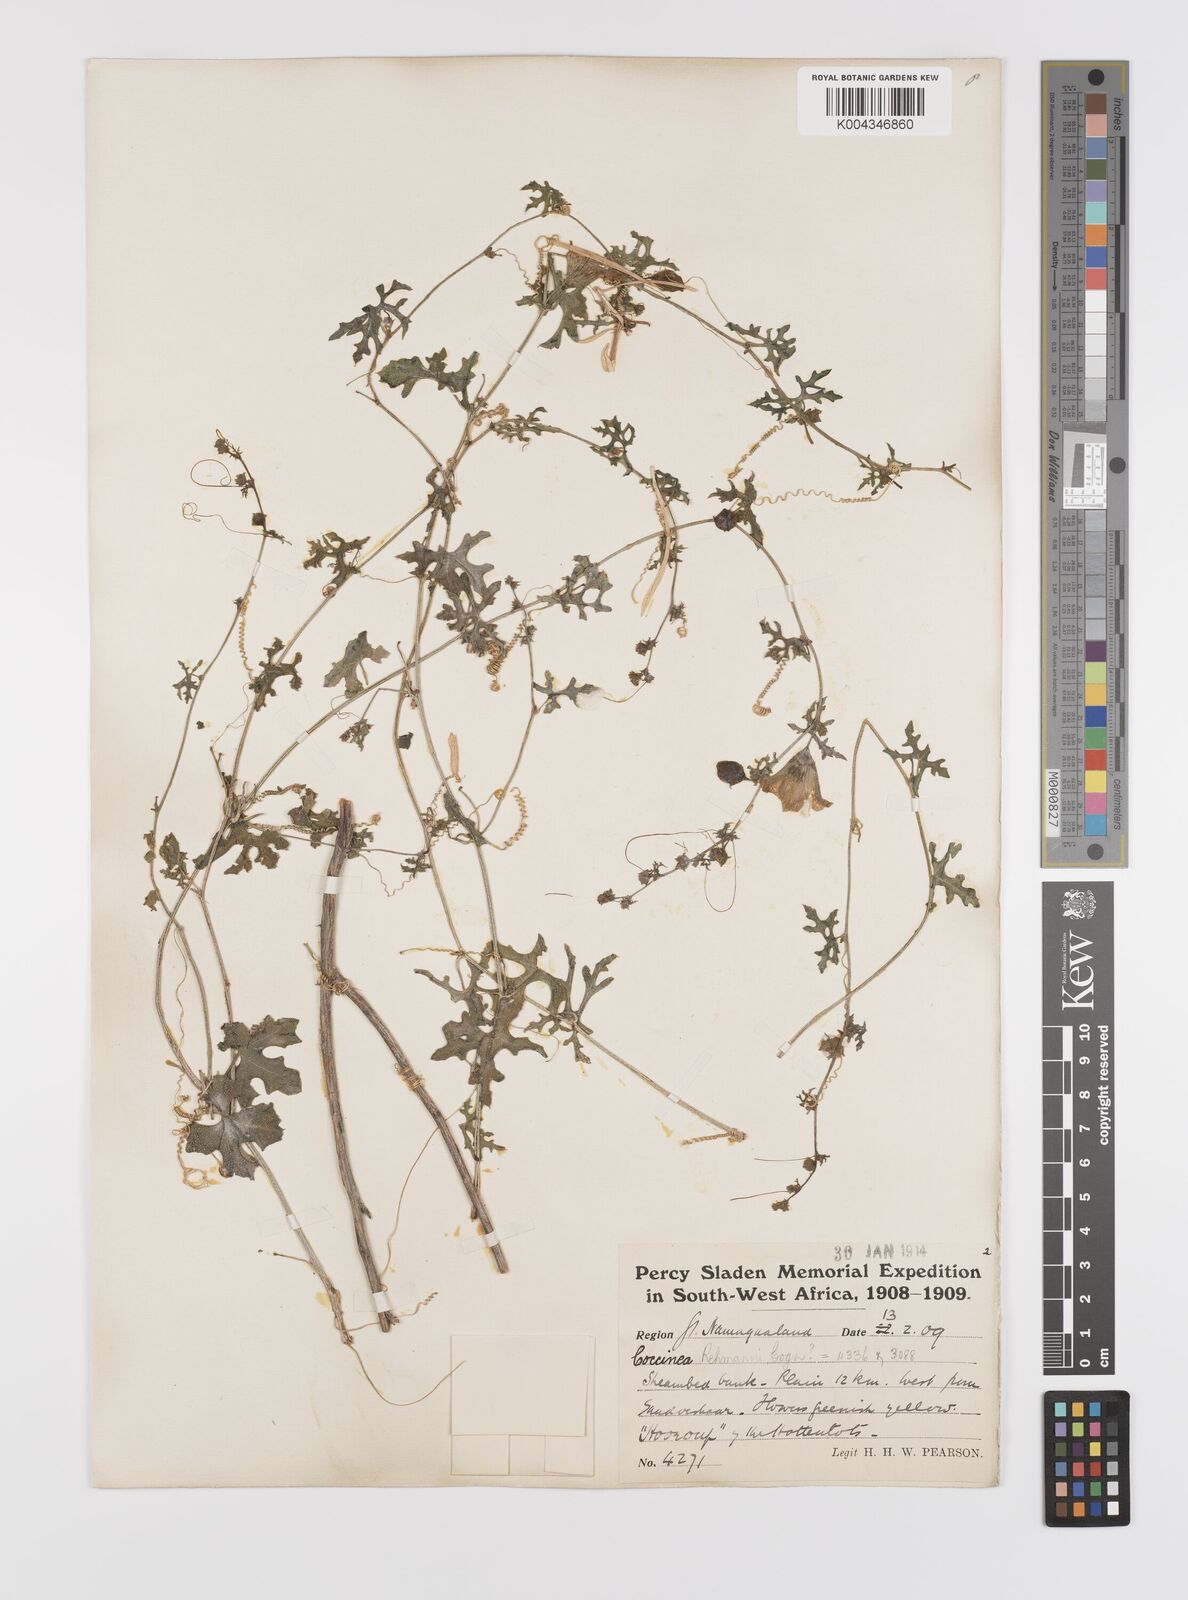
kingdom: Plantae
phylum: Tracheophyta
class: Magnoliopsida
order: Cucurbitales
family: Cucurbitaceae
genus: Coccinia
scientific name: Coccinia rehmannii
